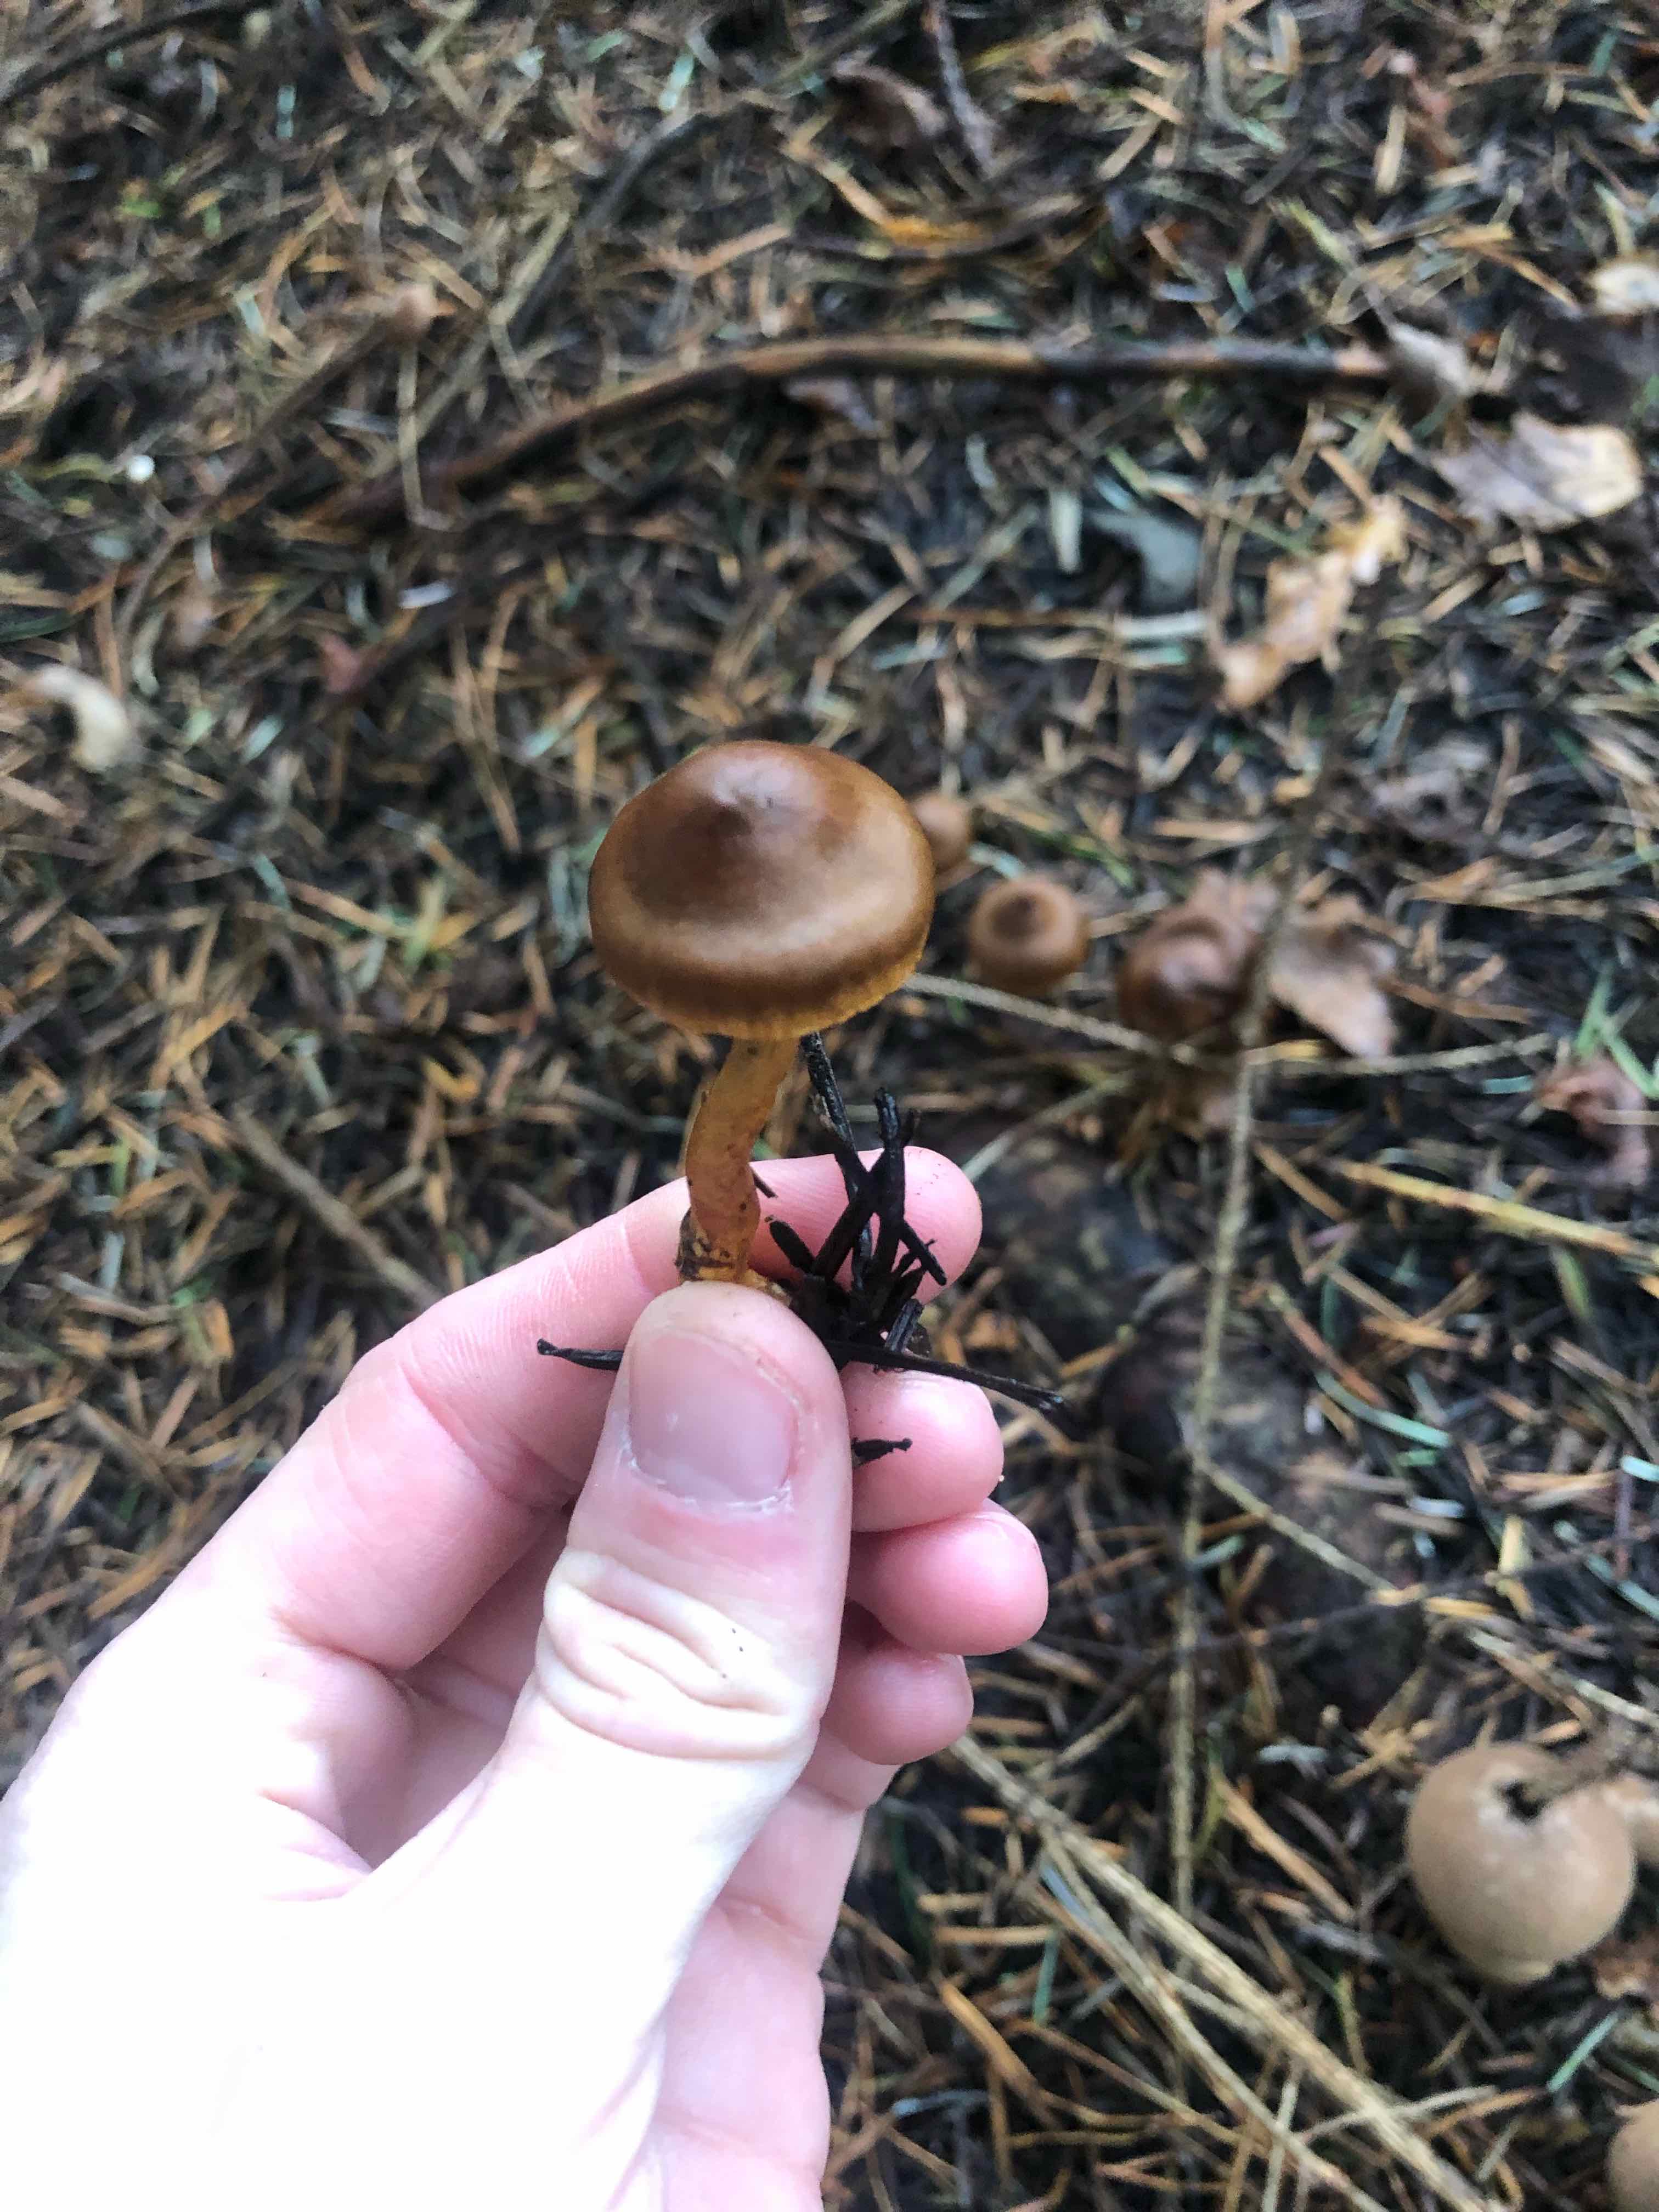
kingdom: Fungi
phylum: Basidiomycota
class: Agaricomycetes
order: Agaricales
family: Cortinariaceae
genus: Cortinarius
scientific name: Cortinarius
